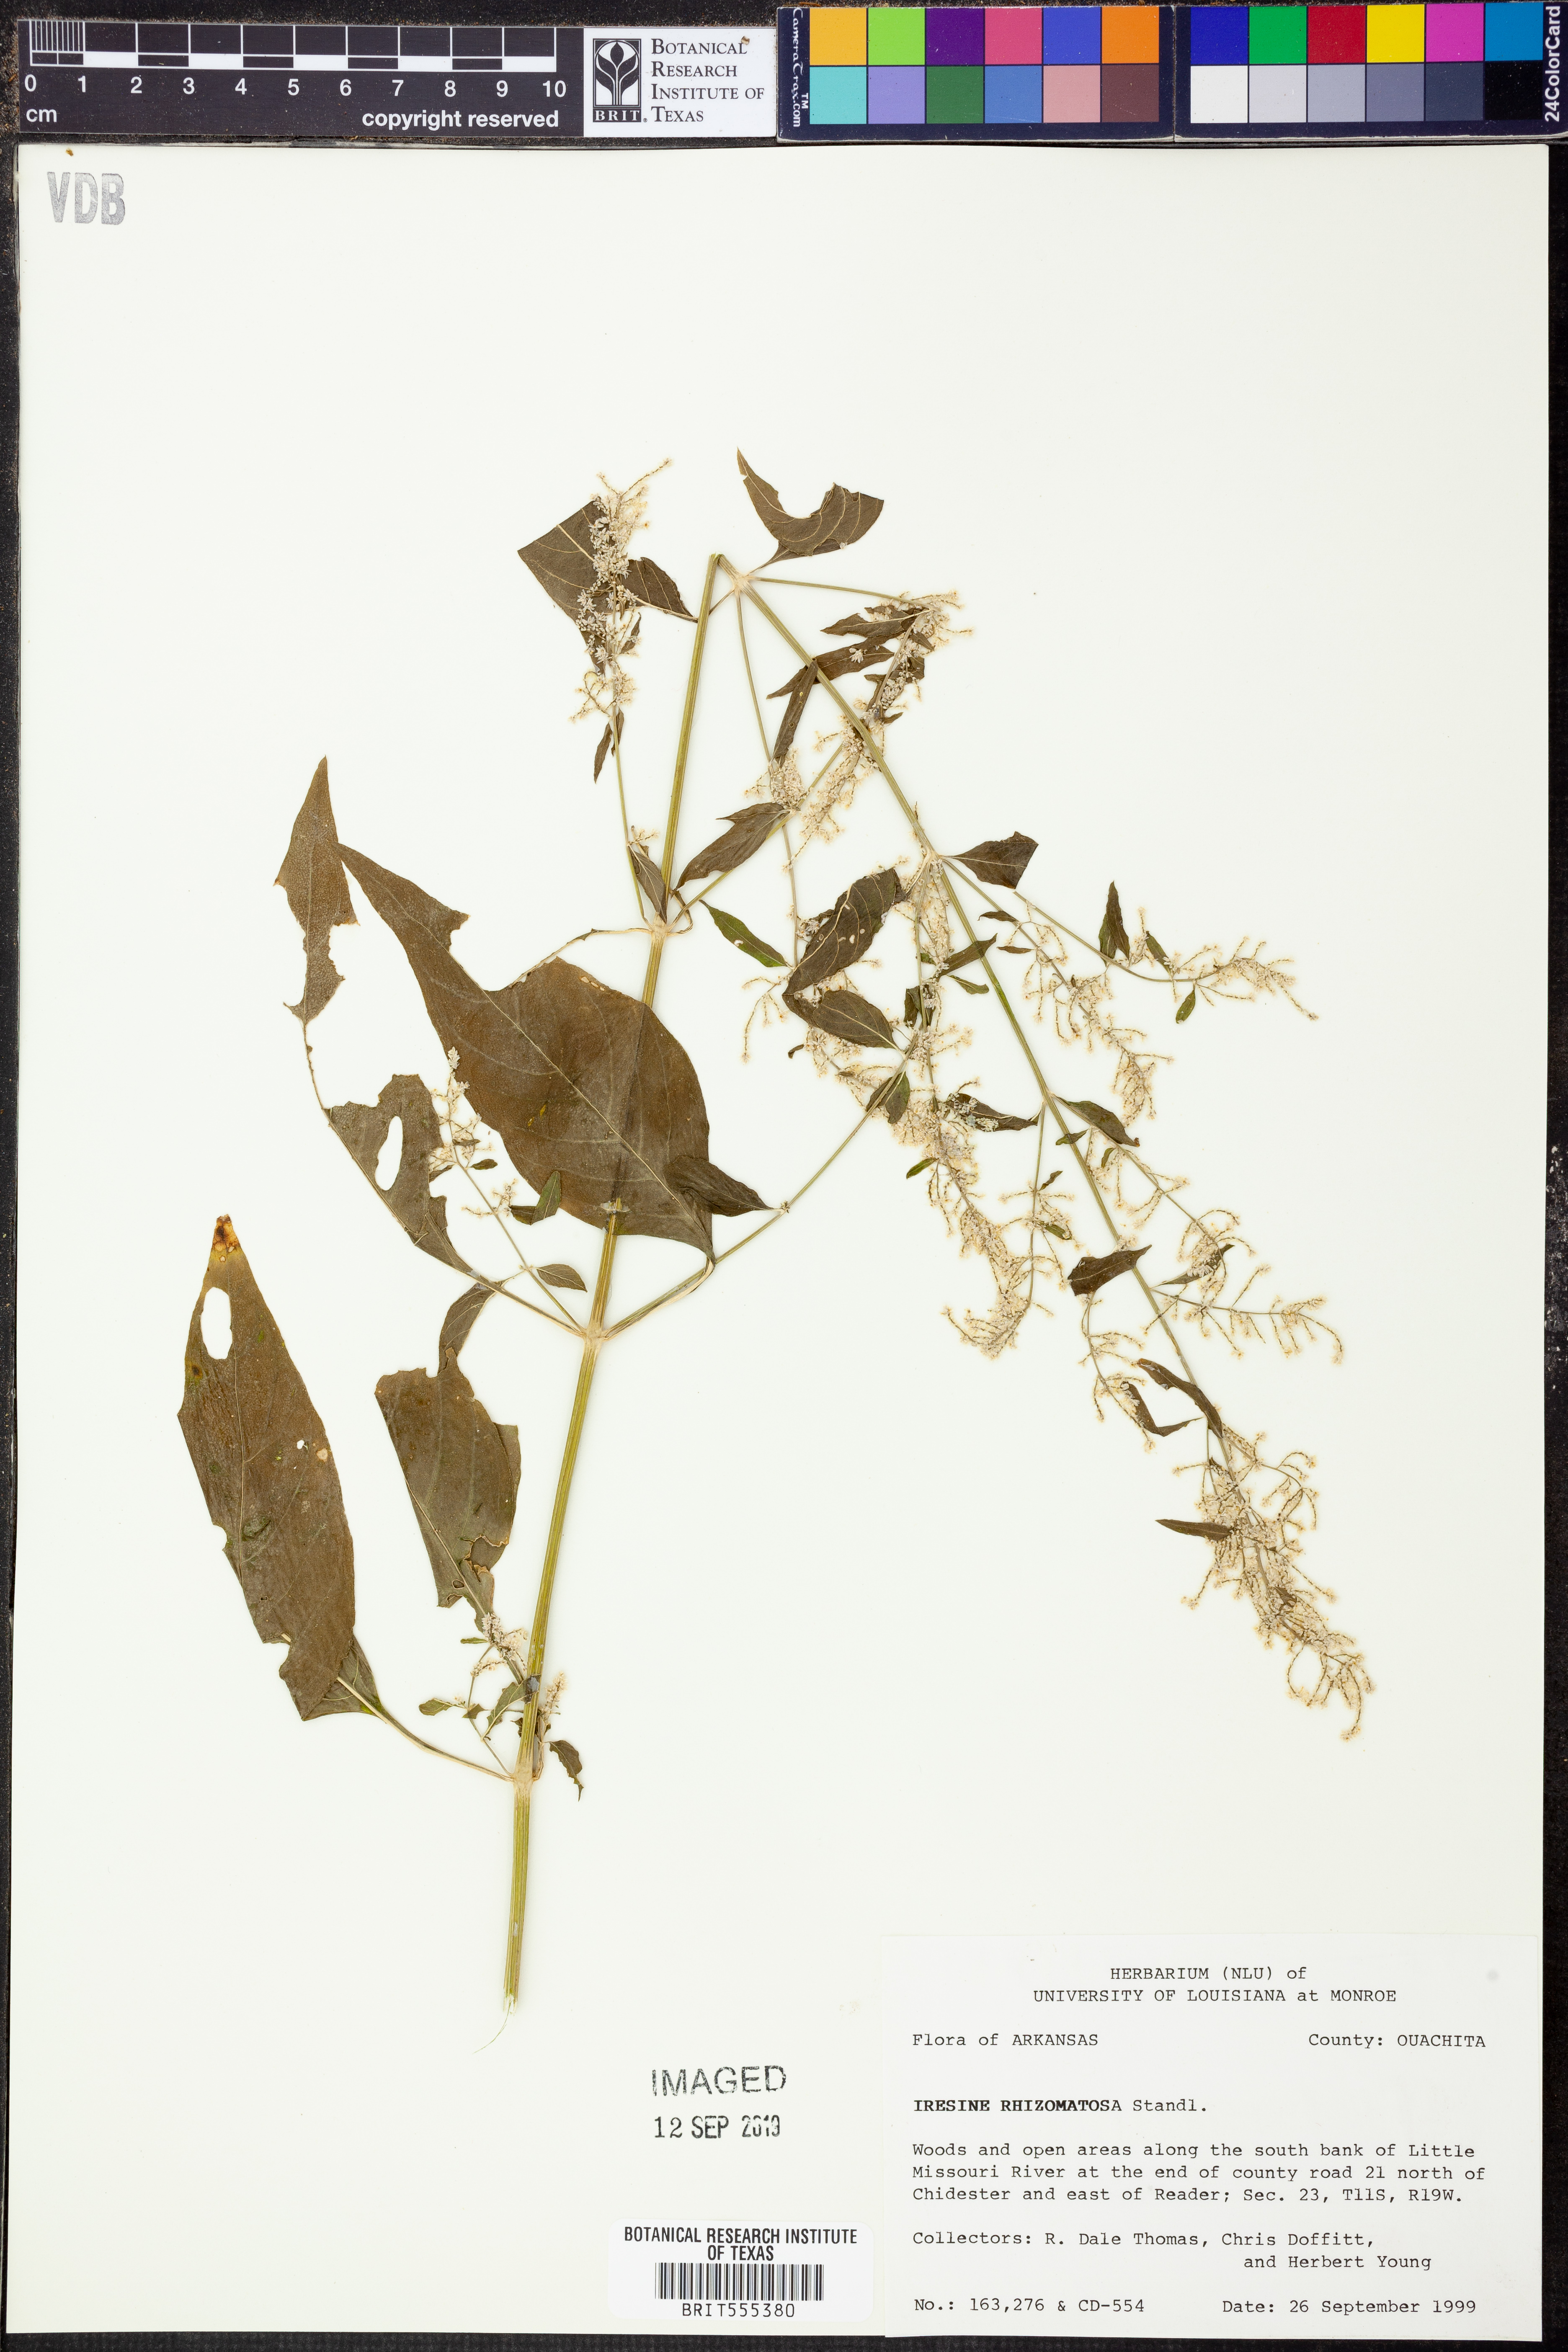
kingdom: Plantae
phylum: Tracheophyta
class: Magnoliopsida
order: Caryophyllales
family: Amaranthaceae
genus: Iresine
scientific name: Iresine rhizomatosa
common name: Juda's-bush
